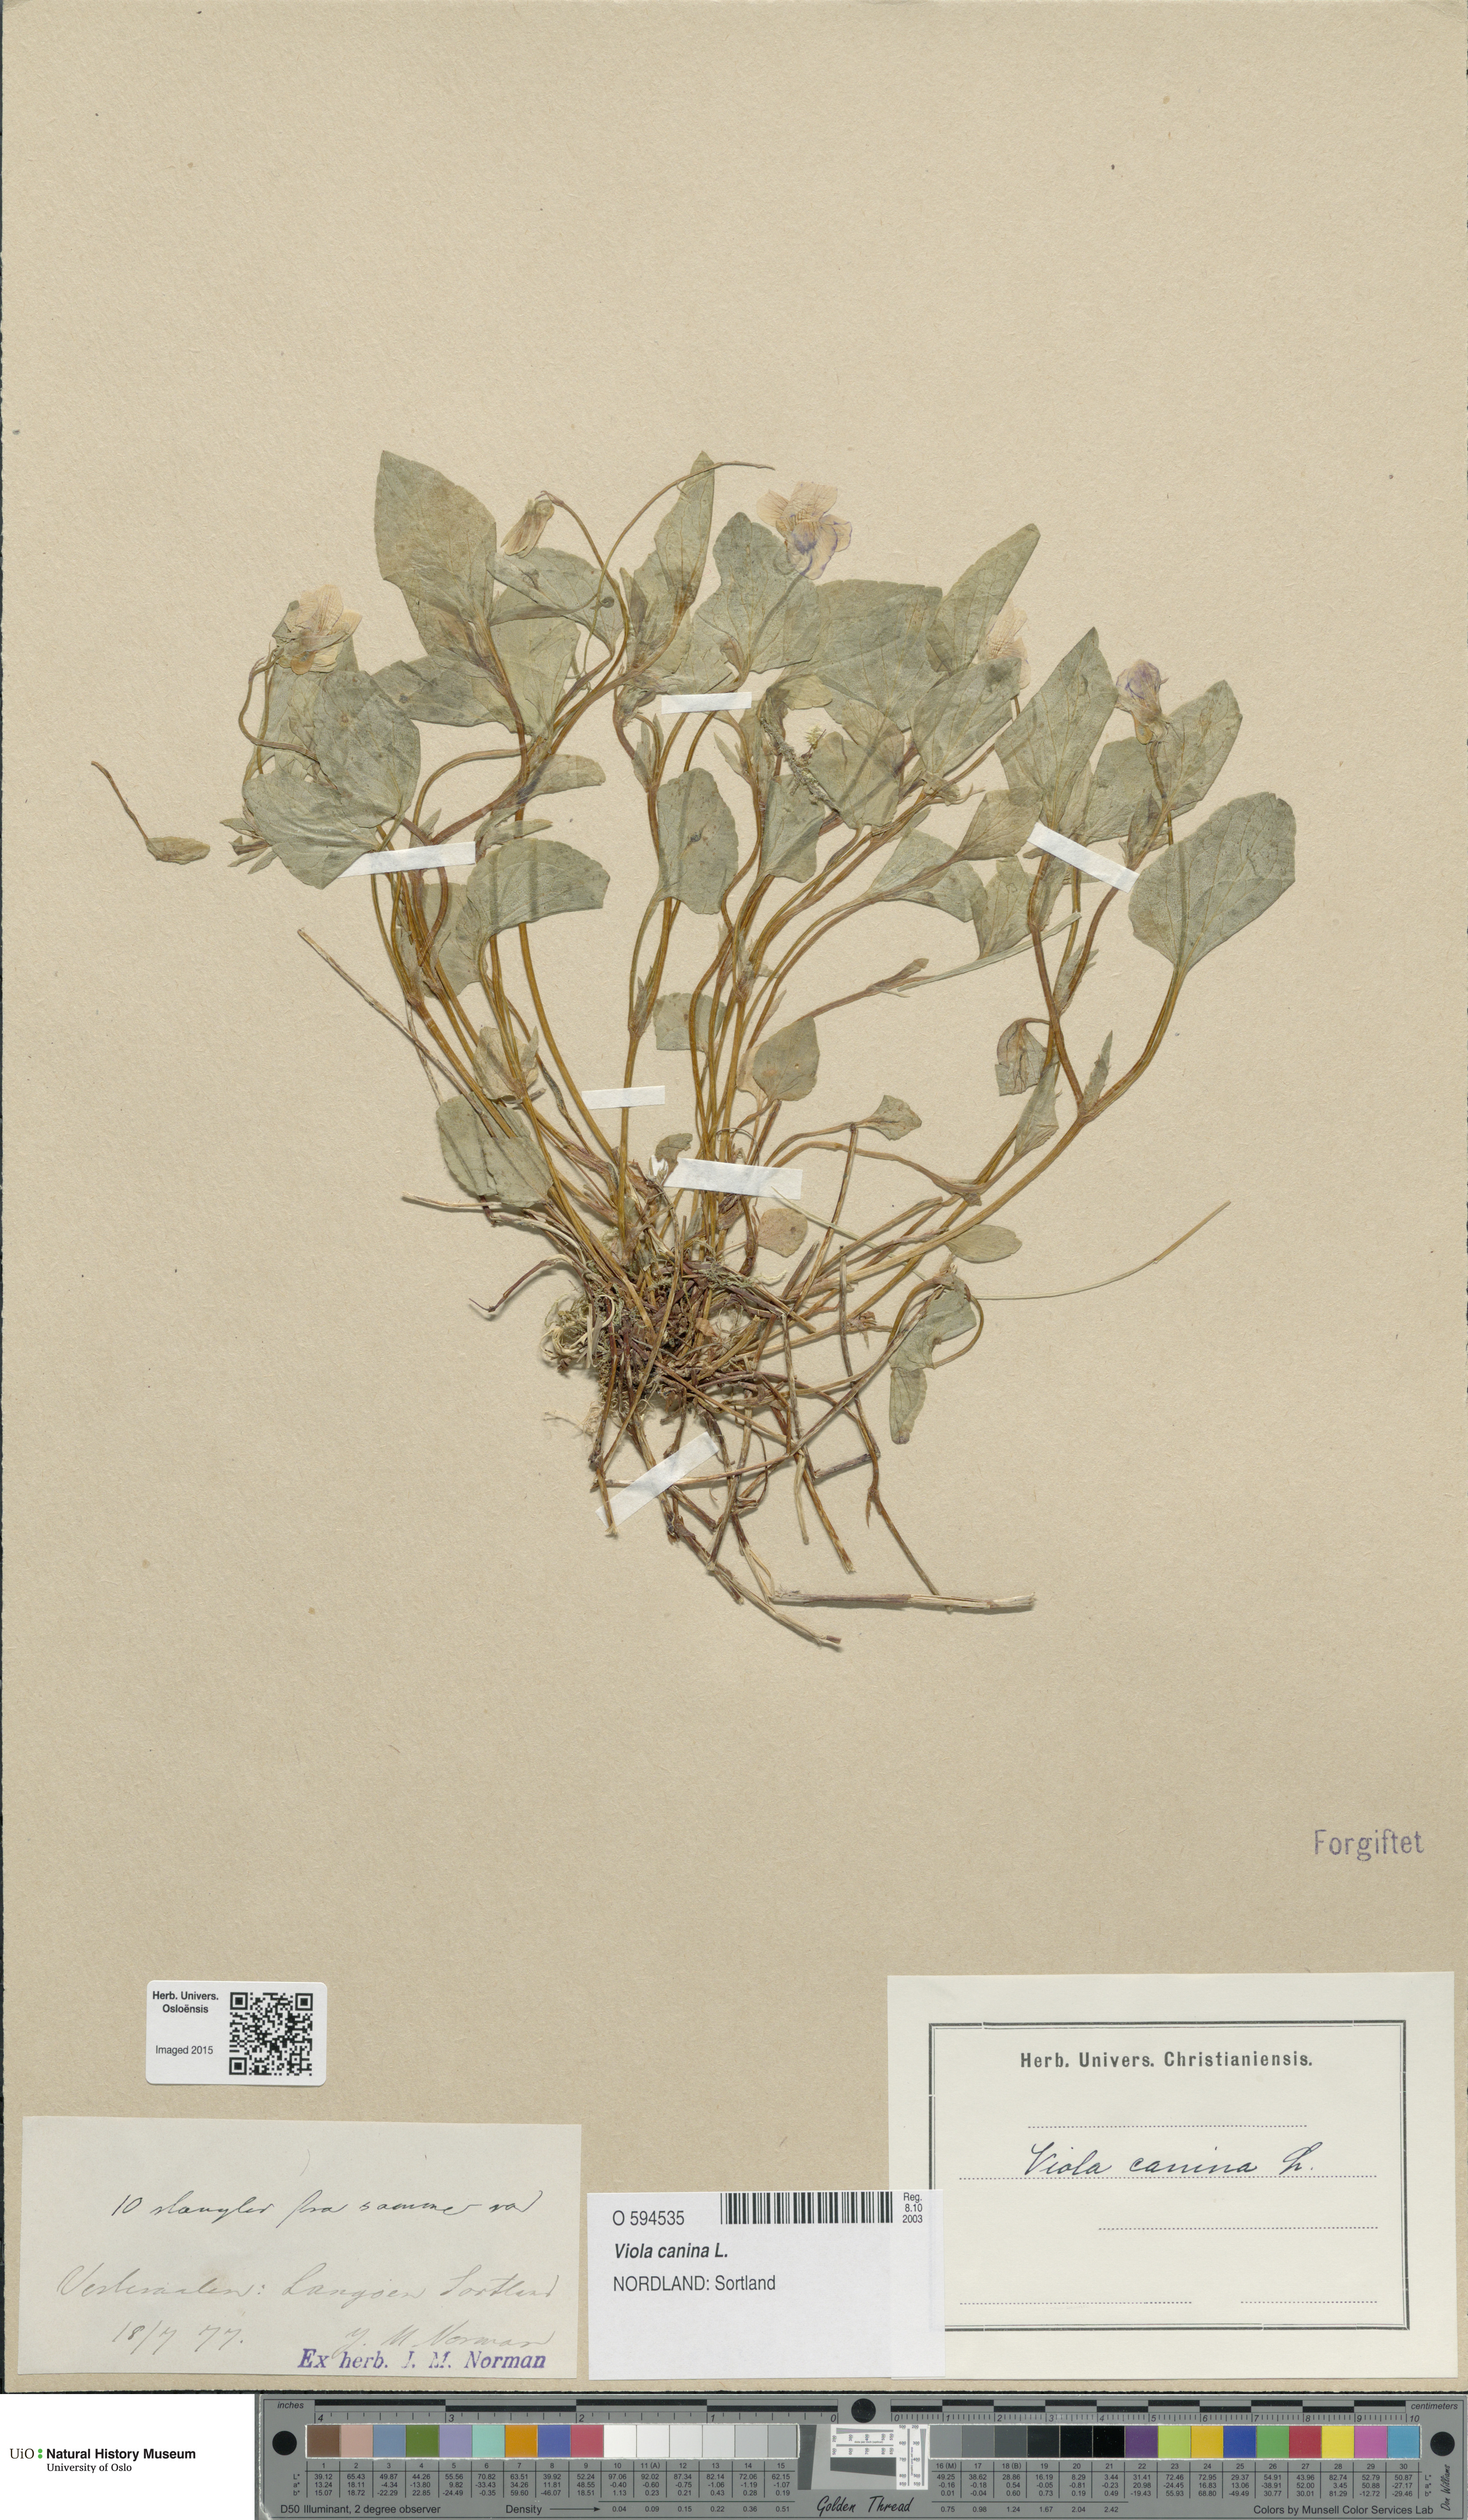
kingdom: Plantae
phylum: Tracheophyta
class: Magnoliopsida
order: Malpighiales
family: Violaceae
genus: Viola
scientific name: Viola canina
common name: Heath dog-violet
